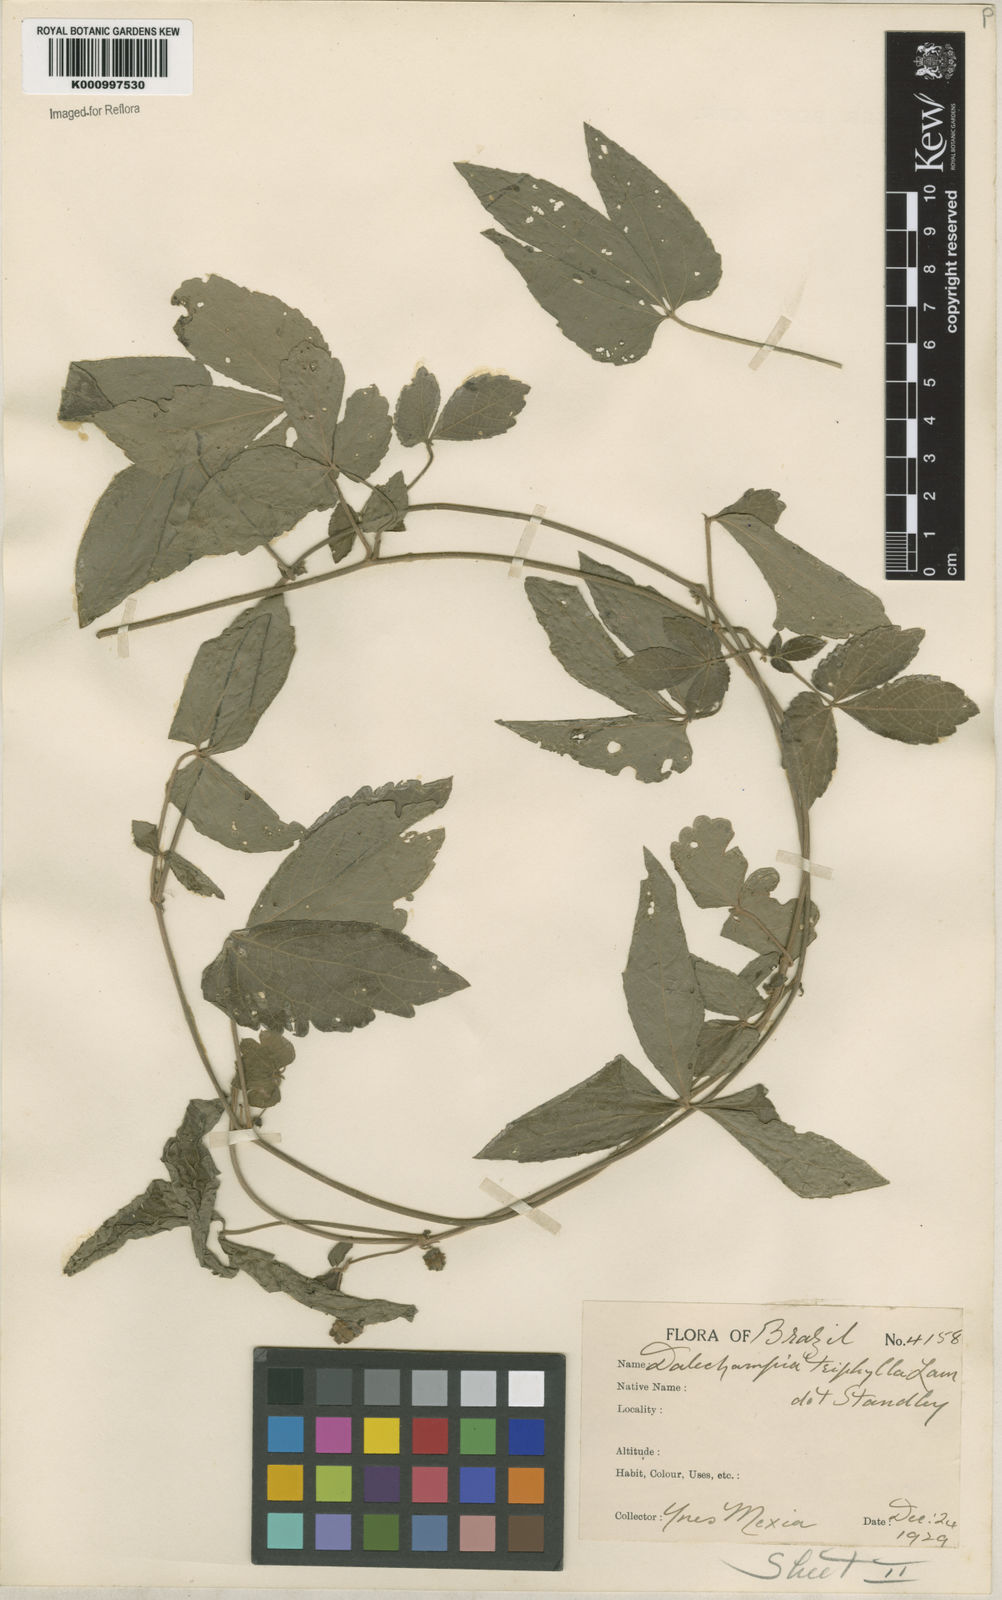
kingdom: Plantae
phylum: Tracheophyta
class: Magnoliopsida
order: Malpighiales
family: Euphorbiaceae
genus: Dalechampia
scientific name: Dalechampia triphylla
